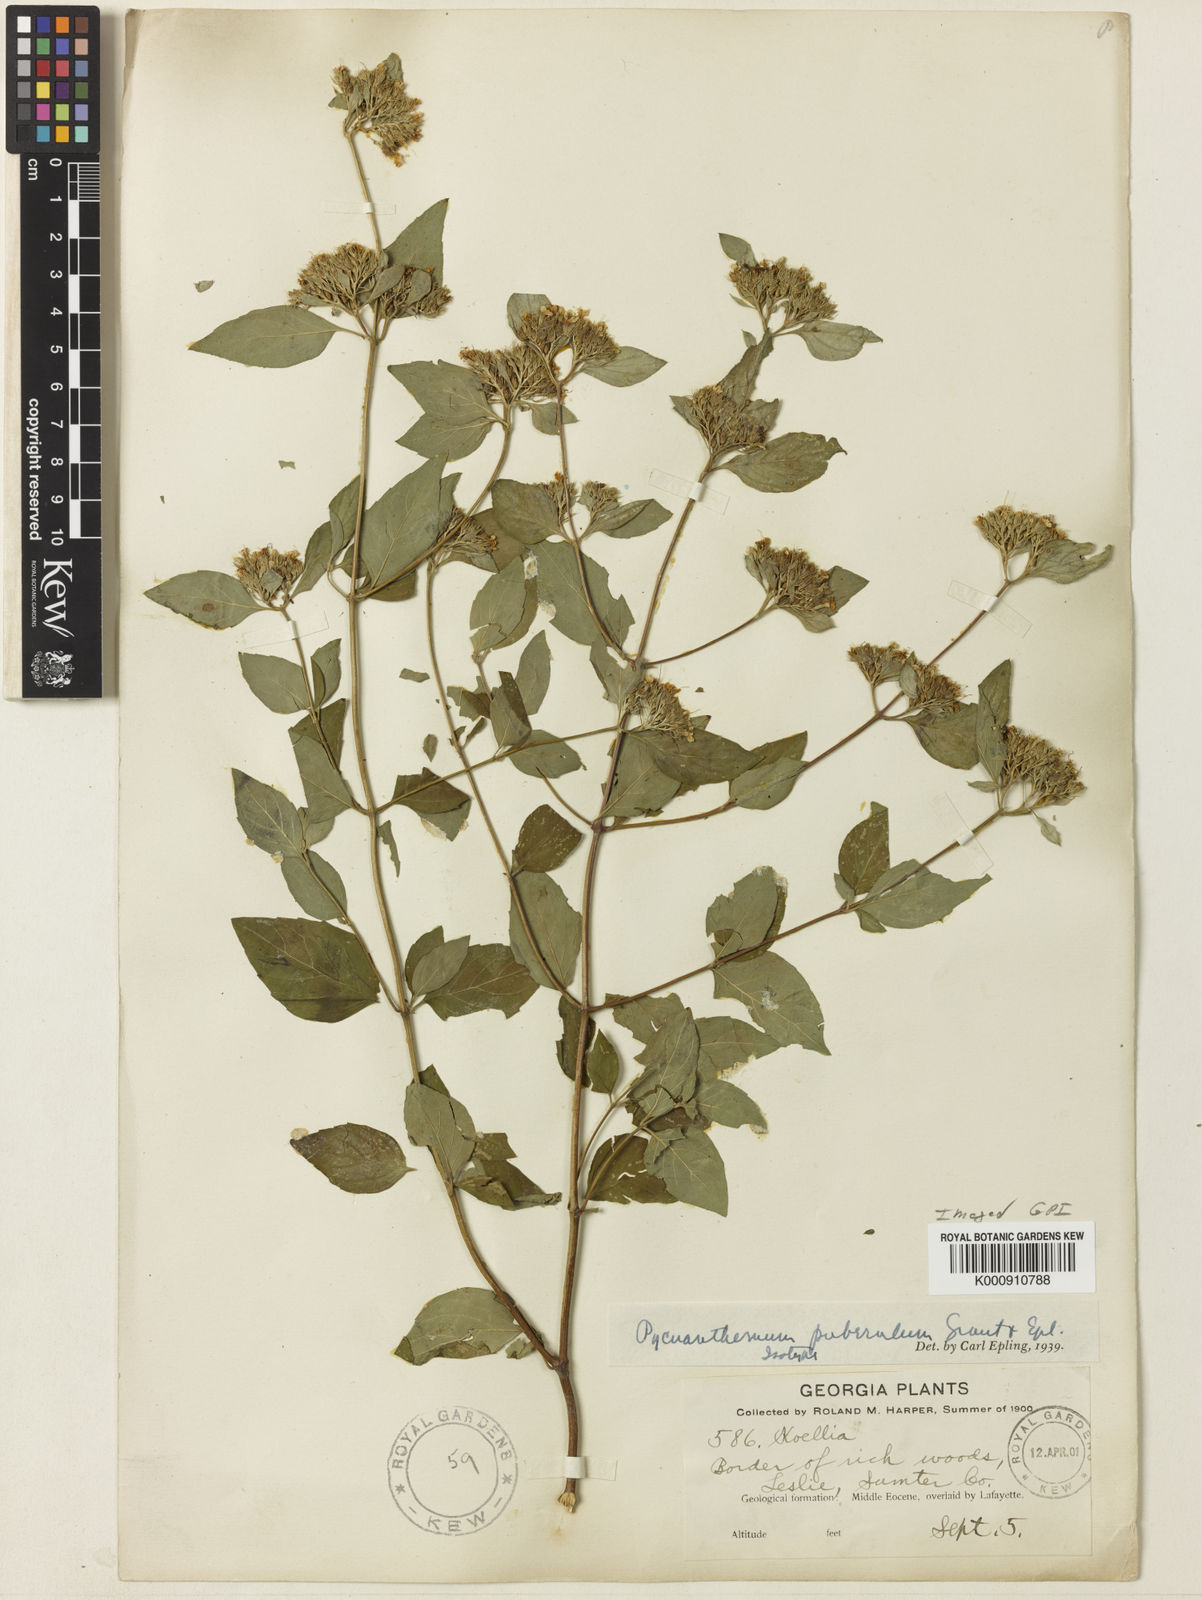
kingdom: Plantae
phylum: Tracheophyta
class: Magnoliopsida
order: Lamiales
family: Lamiaceae
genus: Pycnanthemum
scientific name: Pycnanthemum incanum
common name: Hoary mountain-mint
